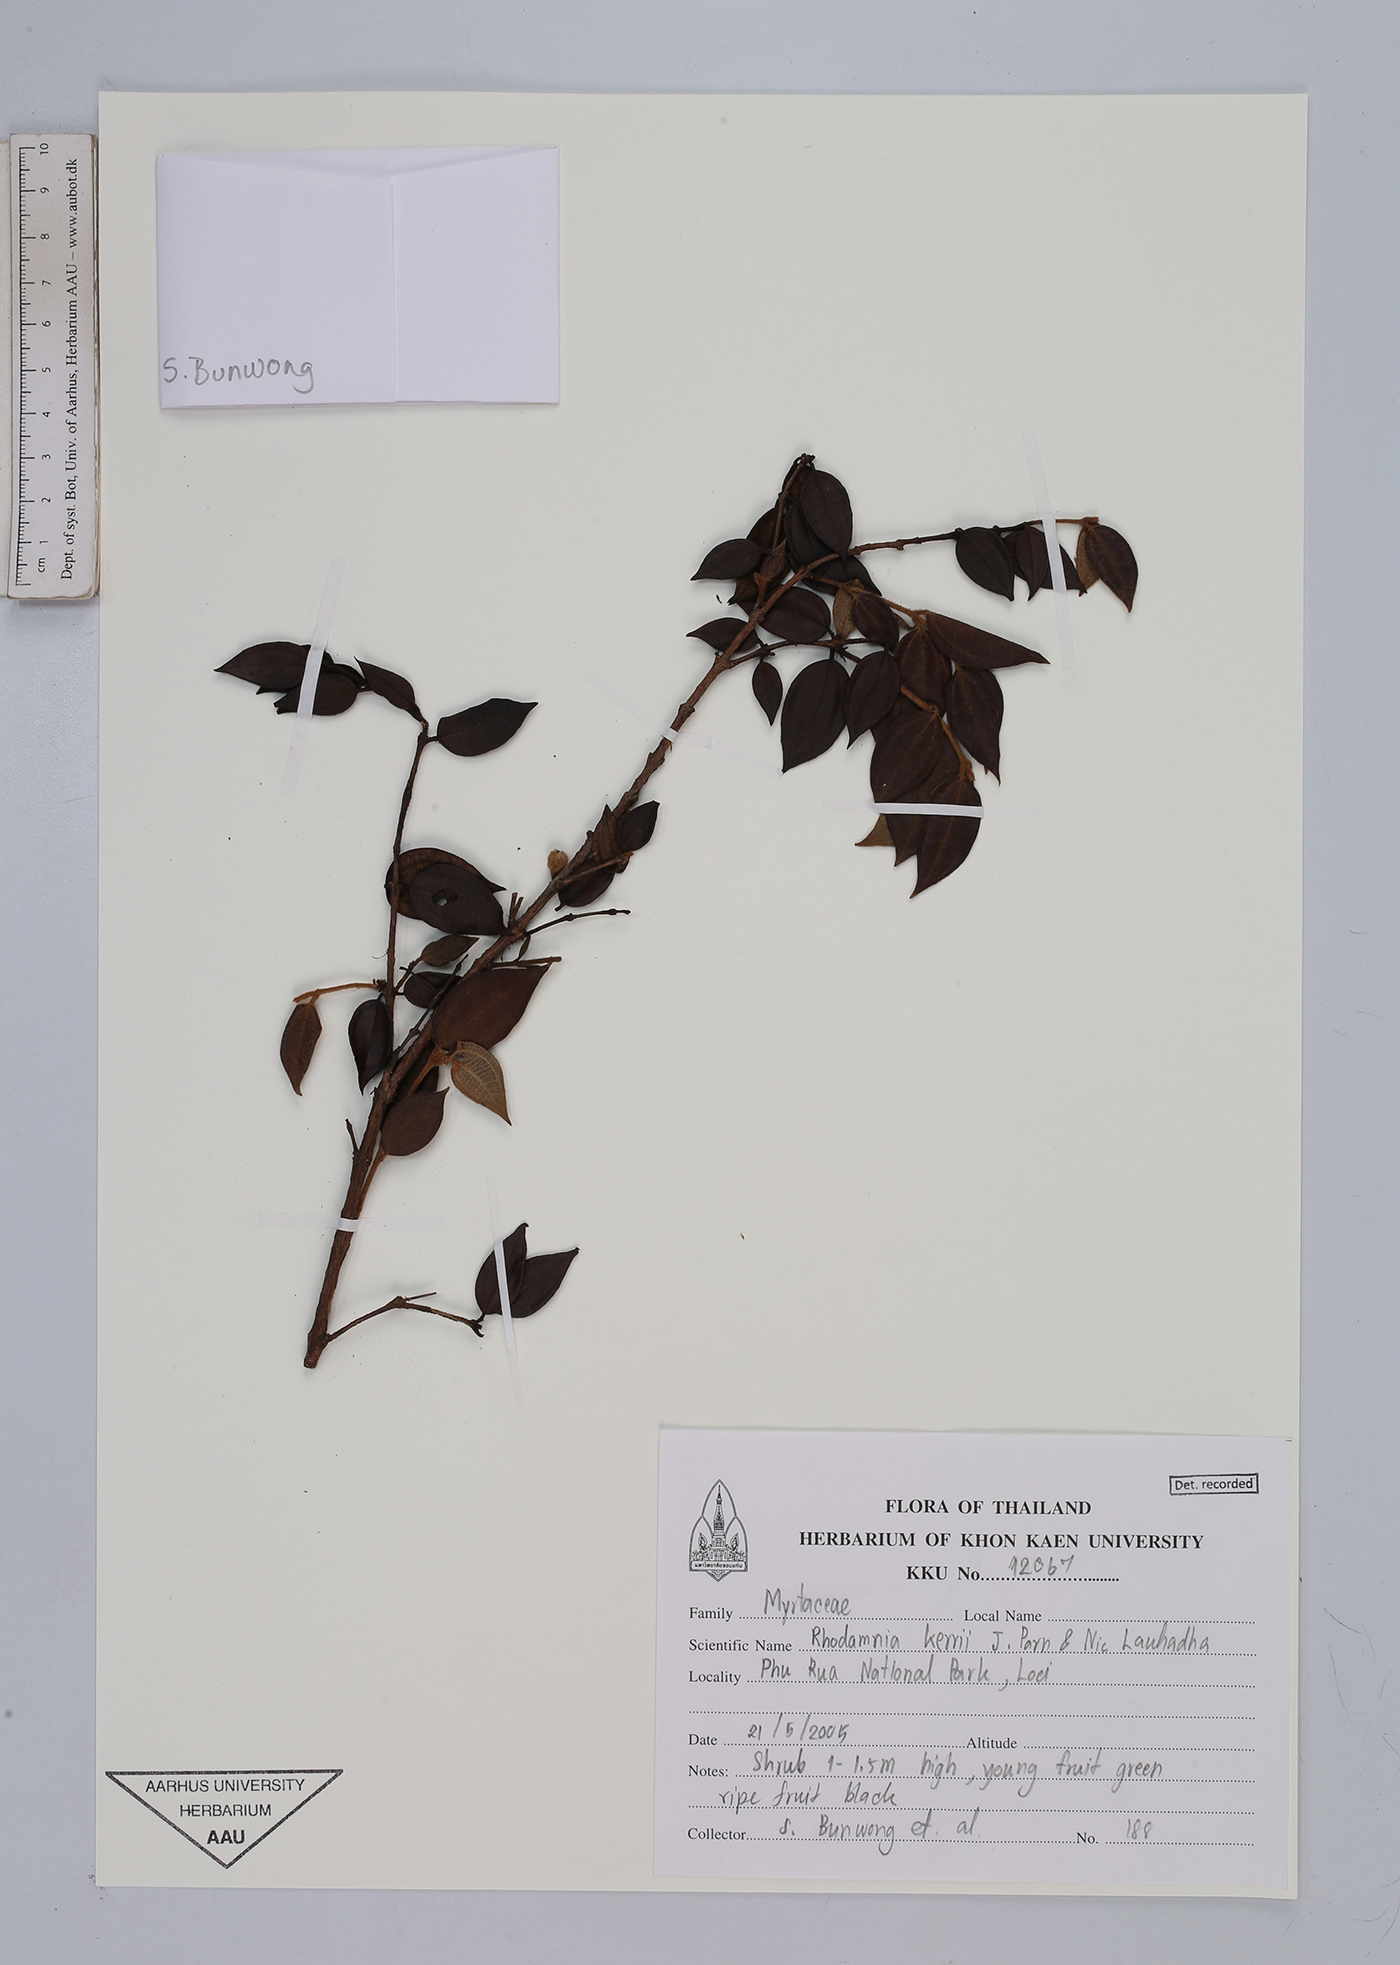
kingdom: Plantae
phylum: Tracheophyta
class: Magnoliopsida
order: Myrtales
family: Myrtaceae
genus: Rhodamnia
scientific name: Rhodamnia kerrii
